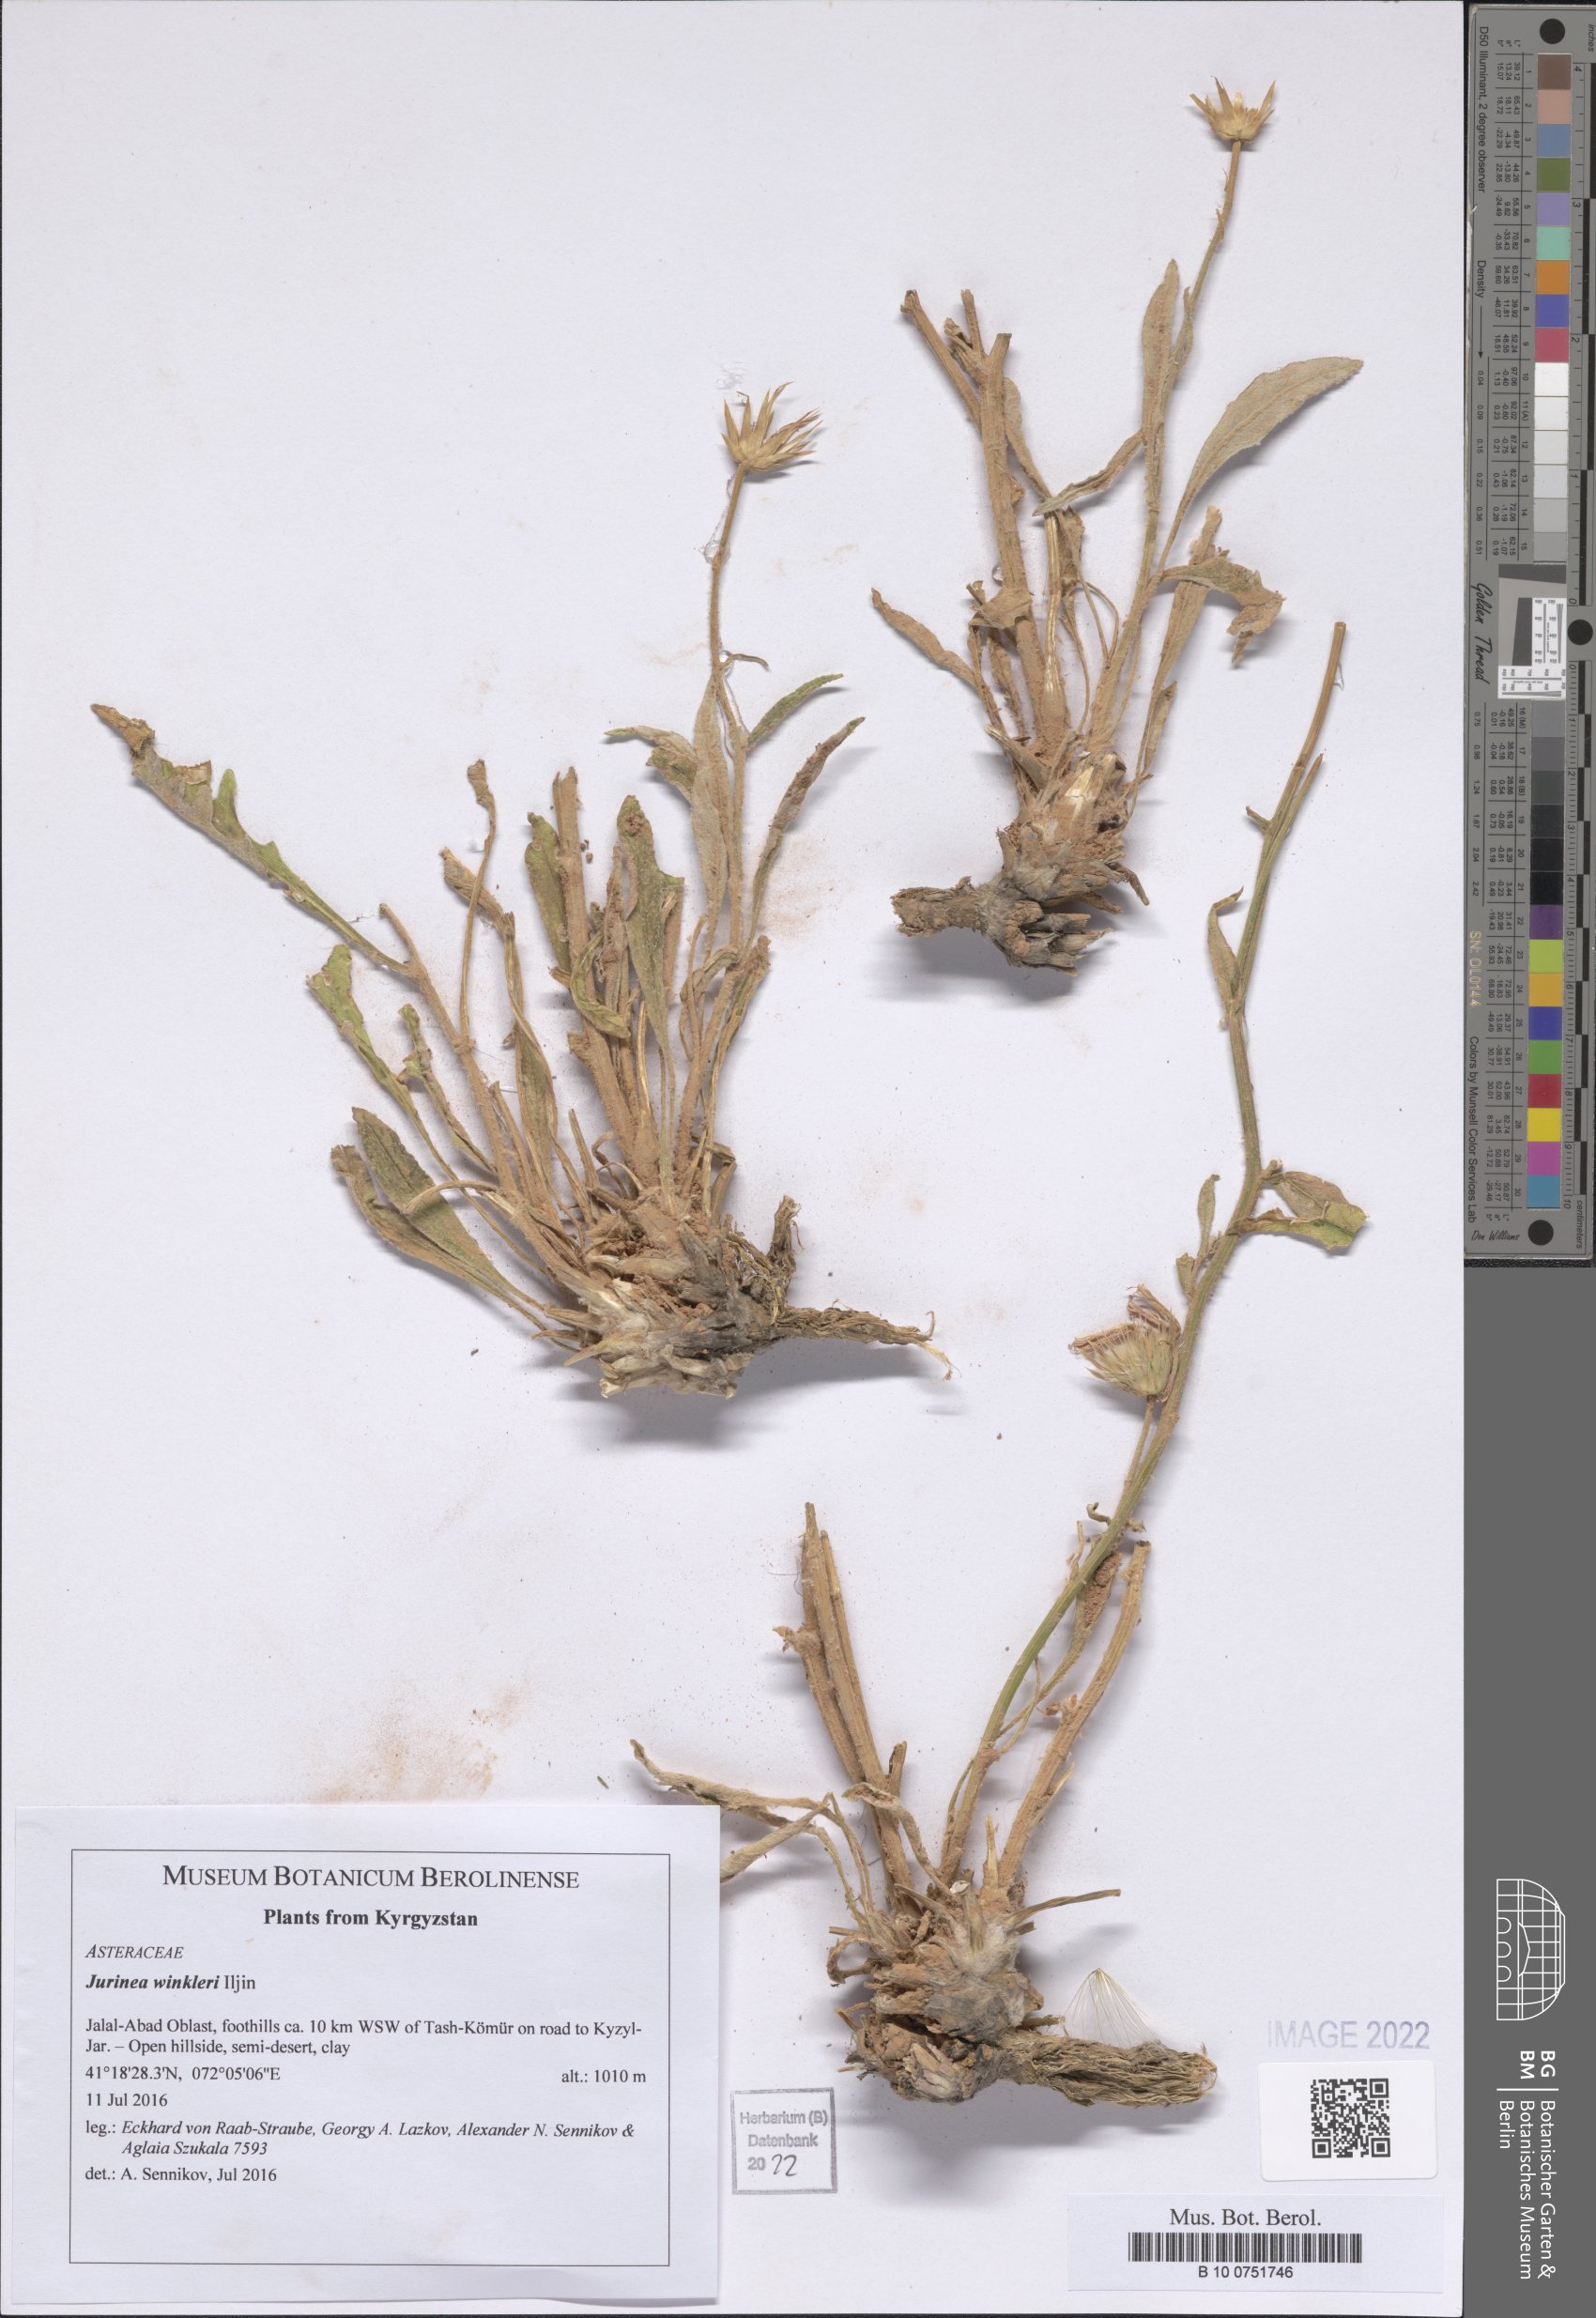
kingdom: Plantae
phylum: Tracheophyta
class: Magnoliopsida
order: Asterales
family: Asteraceae
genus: Jurinea
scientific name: Jurinea winkleri
